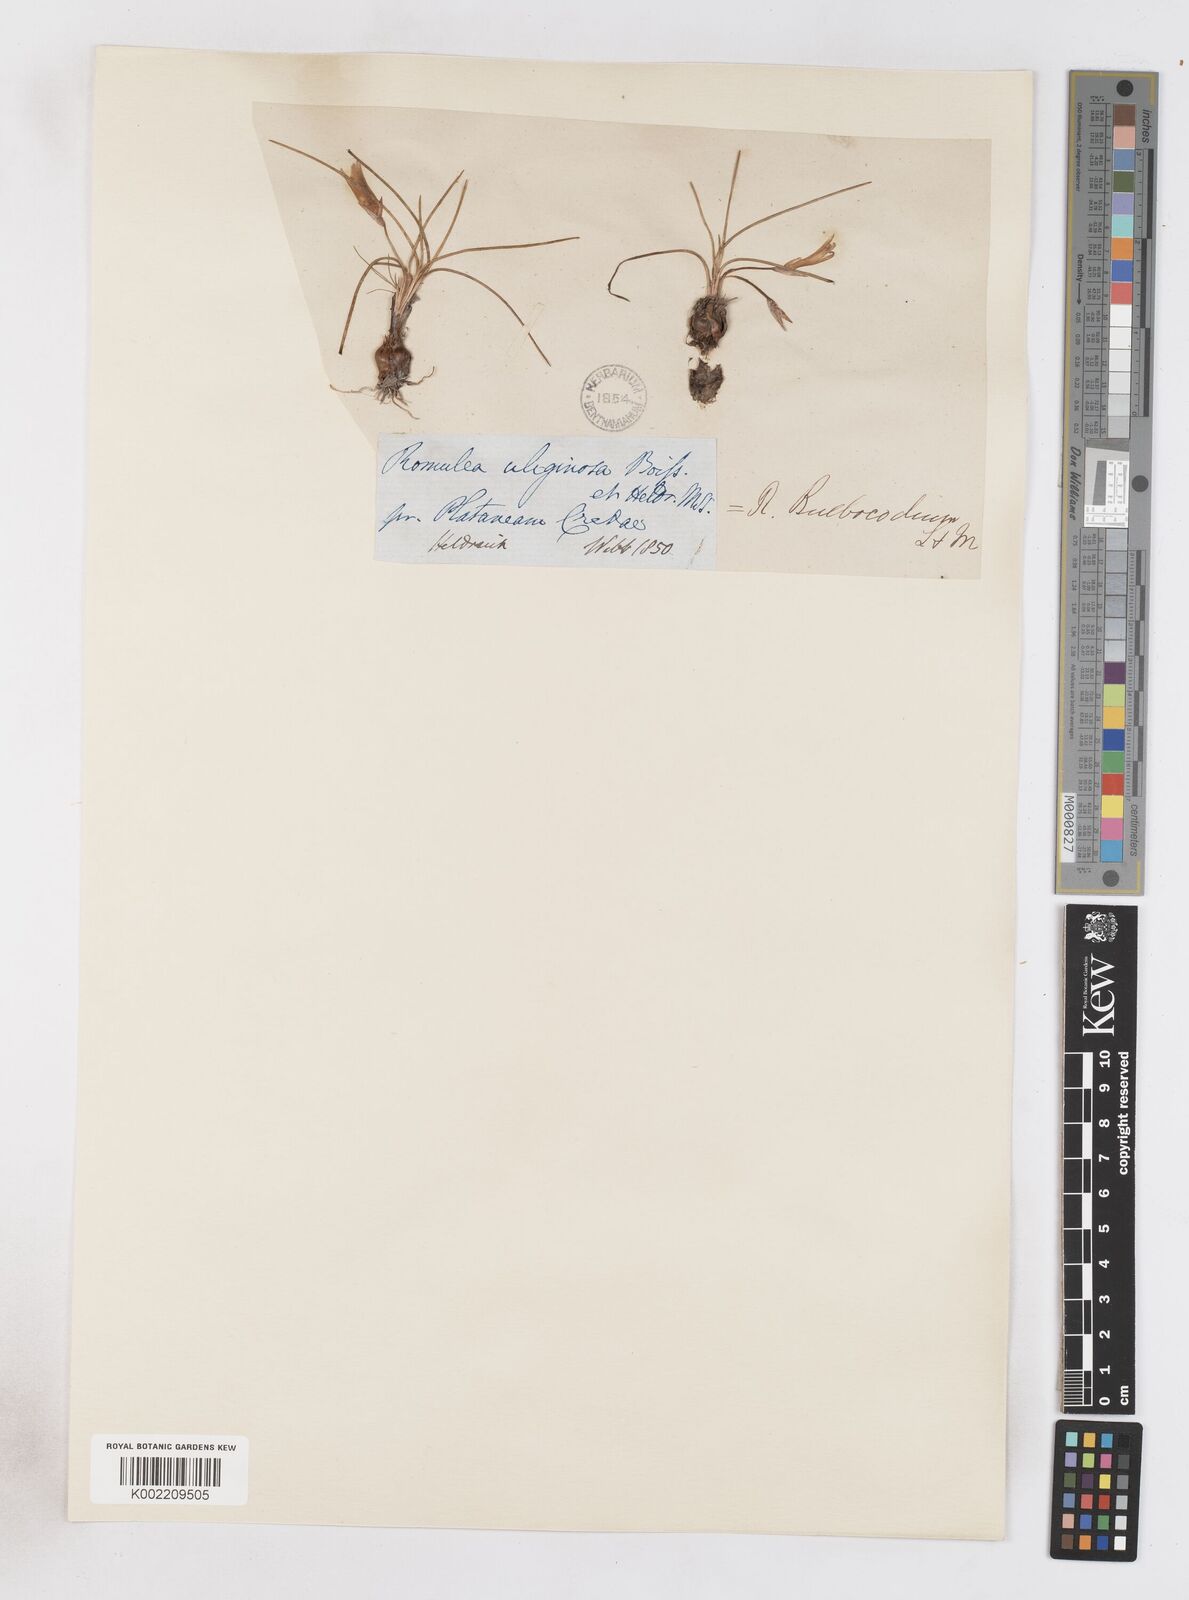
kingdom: Plantae
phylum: Tracheophyta
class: Liliopsida
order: Asparagales
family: Iridaceae
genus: Romulea
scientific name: Romulea bulbocodium
